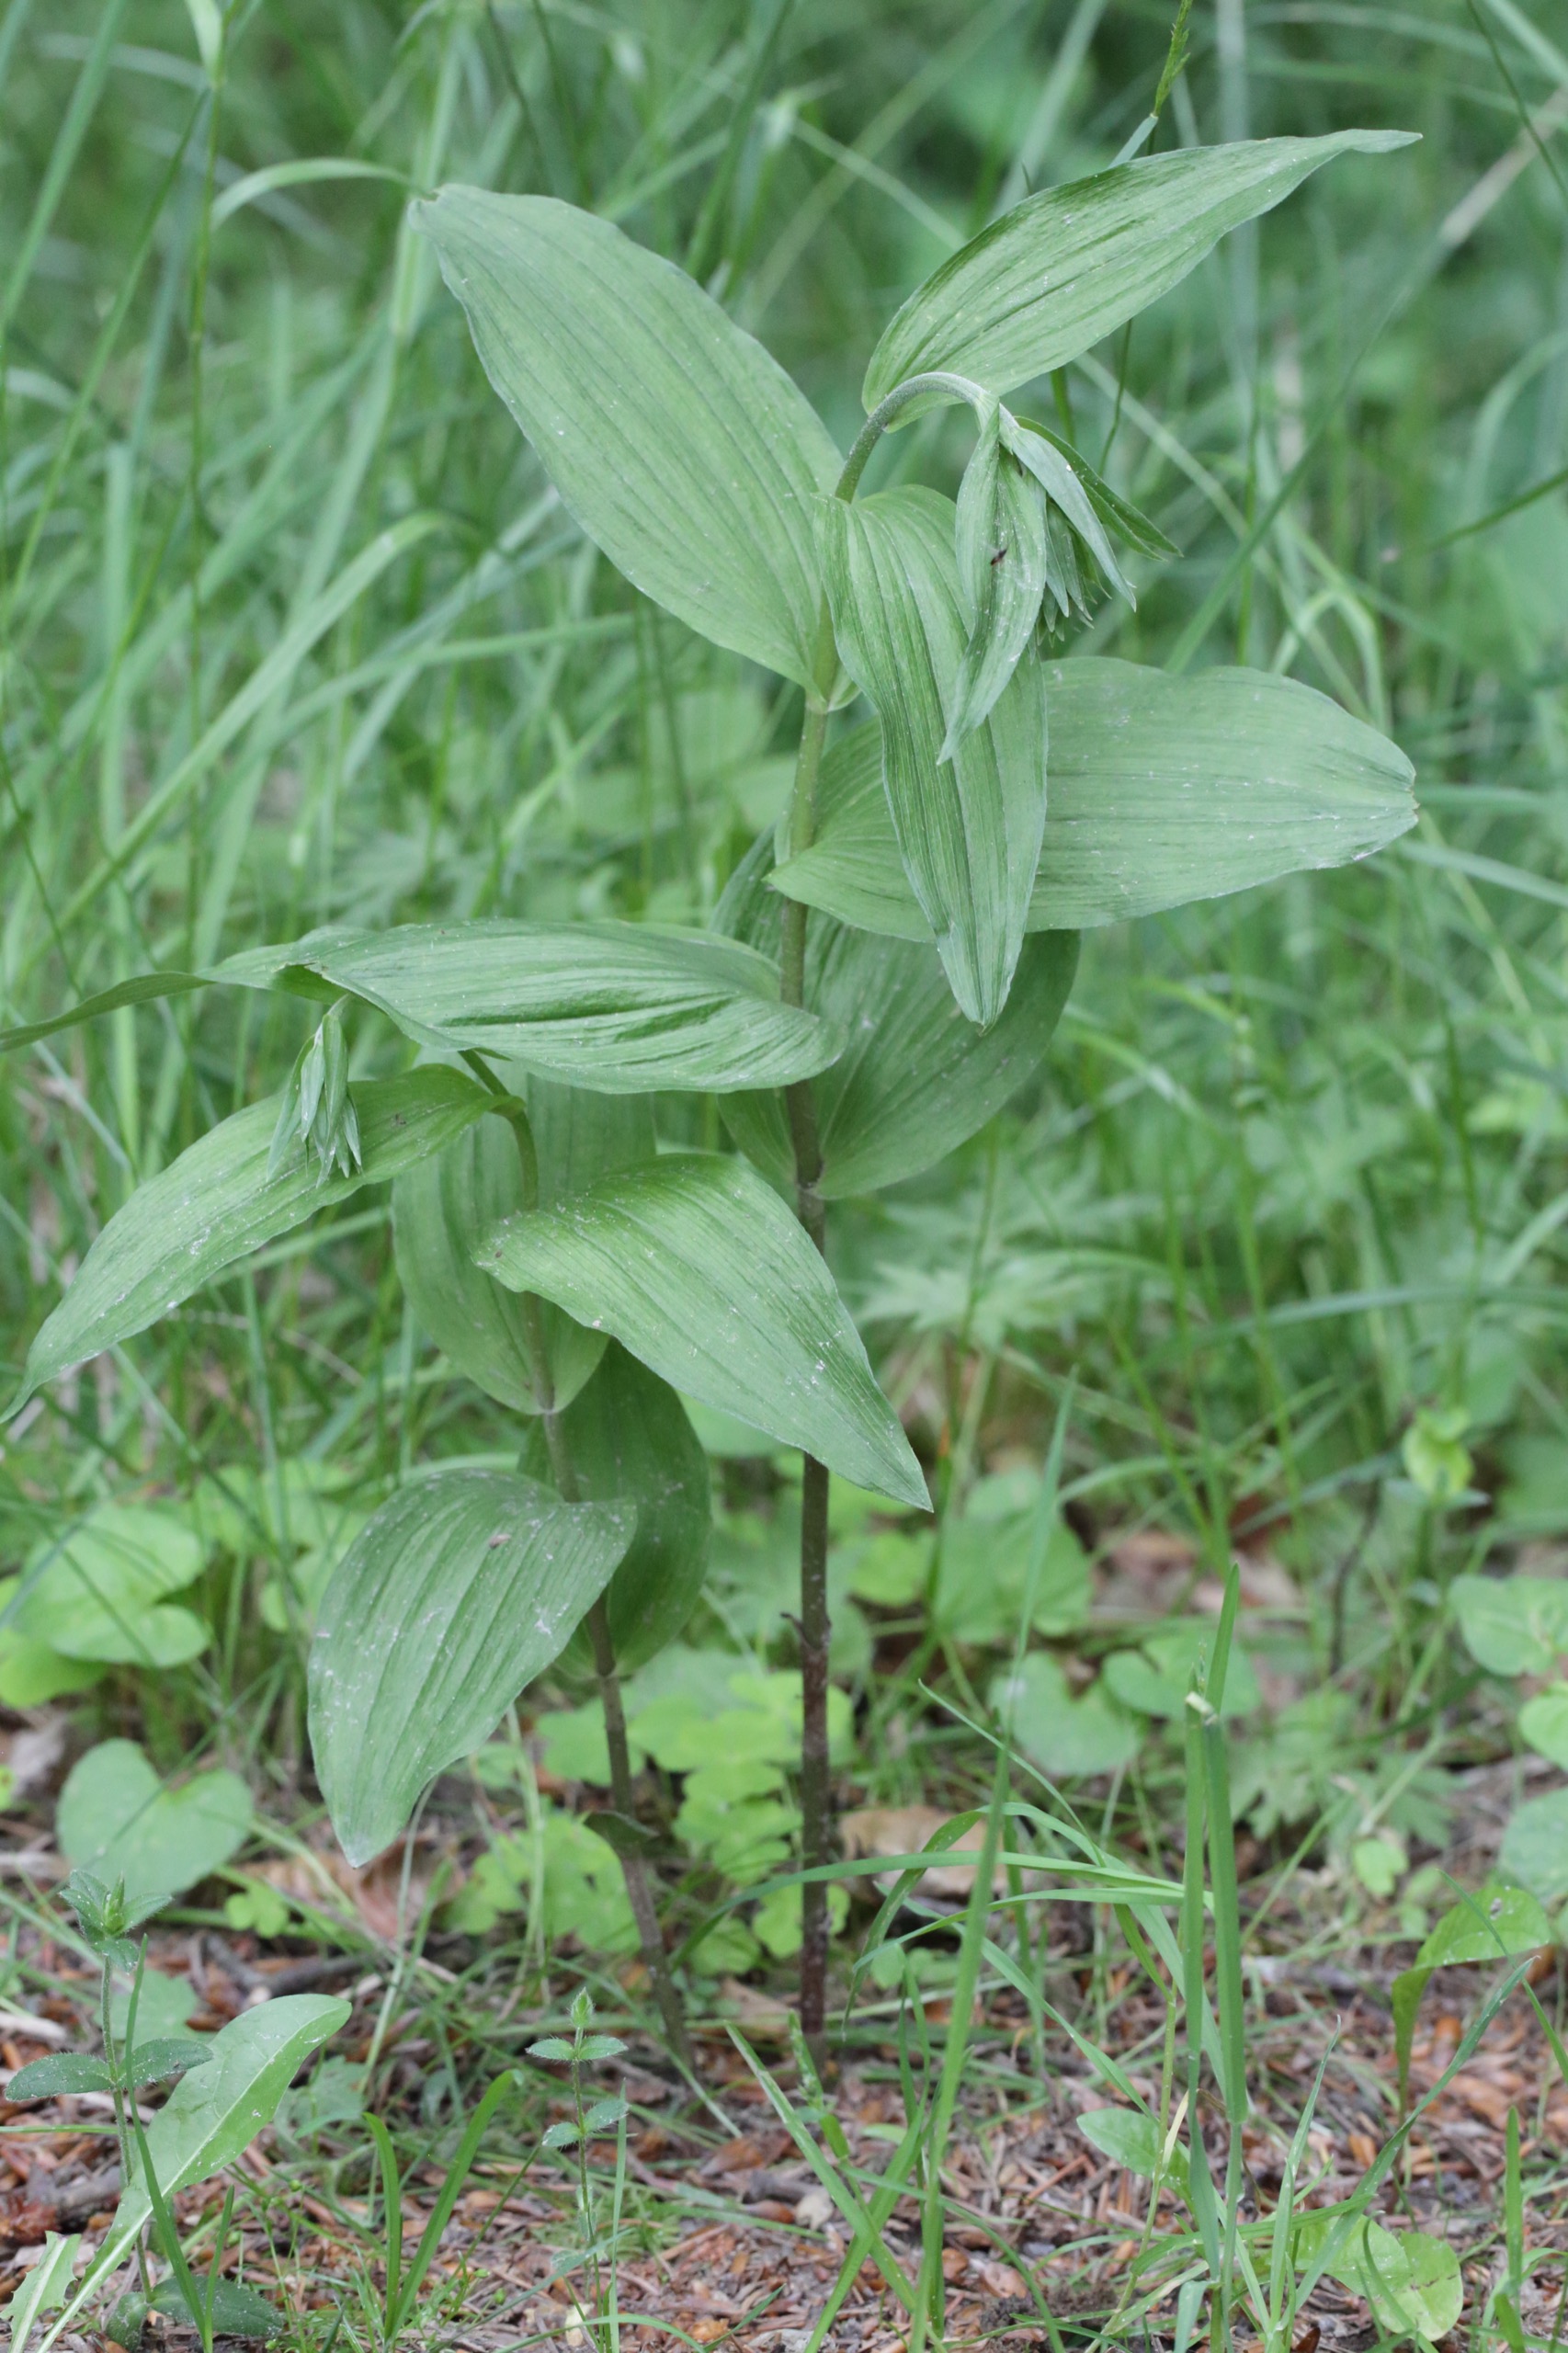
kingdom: Plantae
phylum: Tracheophyta
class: Liliopsida
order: Asparagales
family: Orchidaceae
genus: Epipactis
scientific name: Epipactis helleborine
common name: Skov-hullæbe
